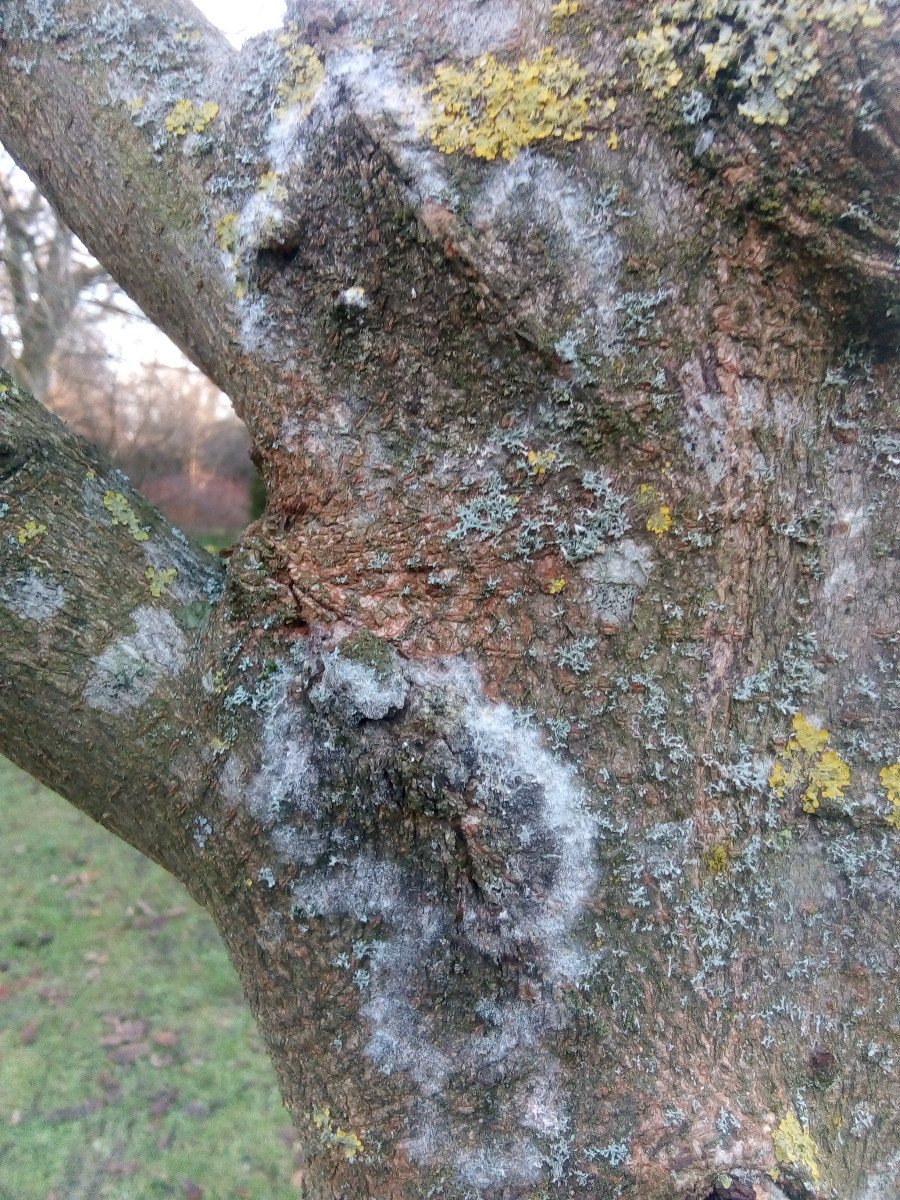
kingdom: Fungi
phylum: Basidiomycota
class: Agaricomycetes
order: Atheliales
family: Atheliaceae
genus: Athelia
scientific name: Athelia arachnoidea
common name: randet barkhinde
